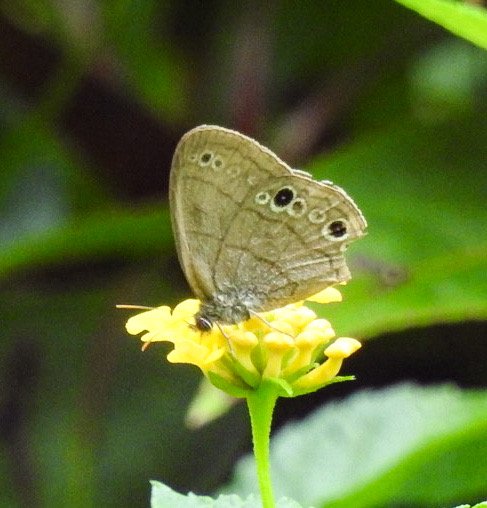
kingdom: Animalia
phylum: Arthropoda
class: Insecta
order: Lepidoptera
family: Nymphalidae
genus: Hermeuptychia
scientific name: Hermeuptychia hermes
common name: Carolina Satyr
